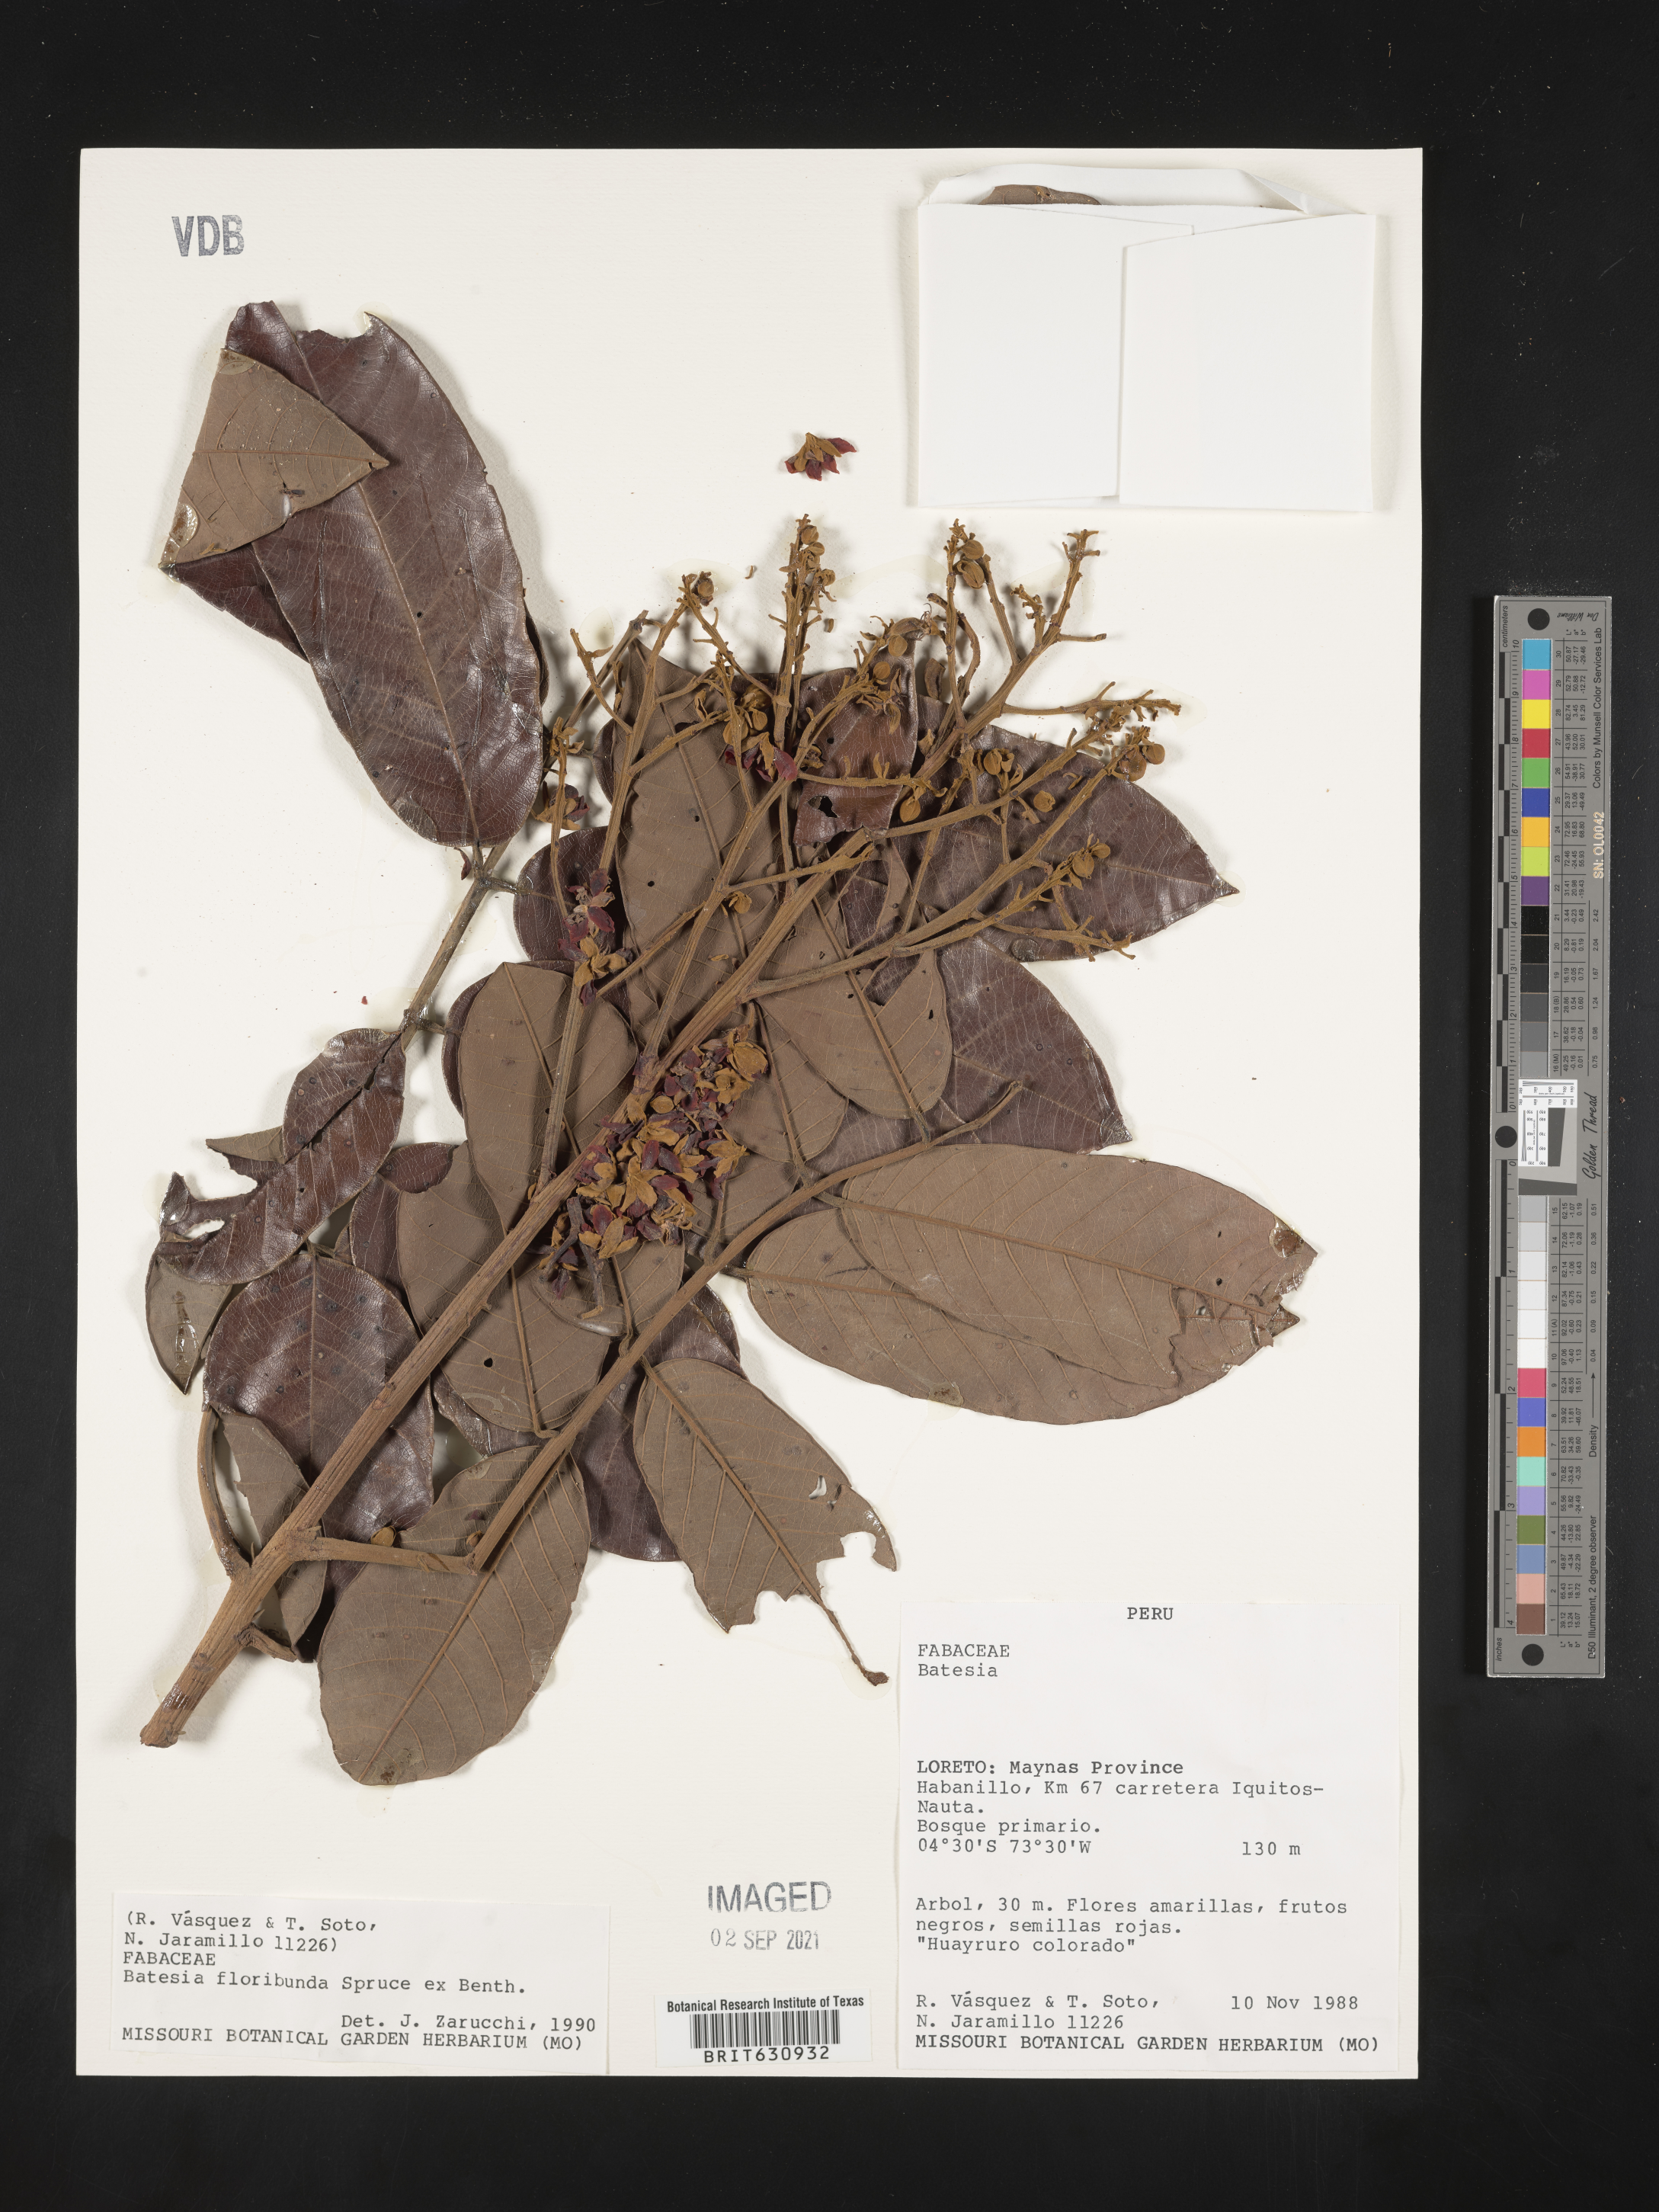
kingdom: Plantae
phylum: Tracheophyta
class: Magnoliopsida
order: Fabales
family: Fabaceae
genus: Batesia
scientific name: Batesia
